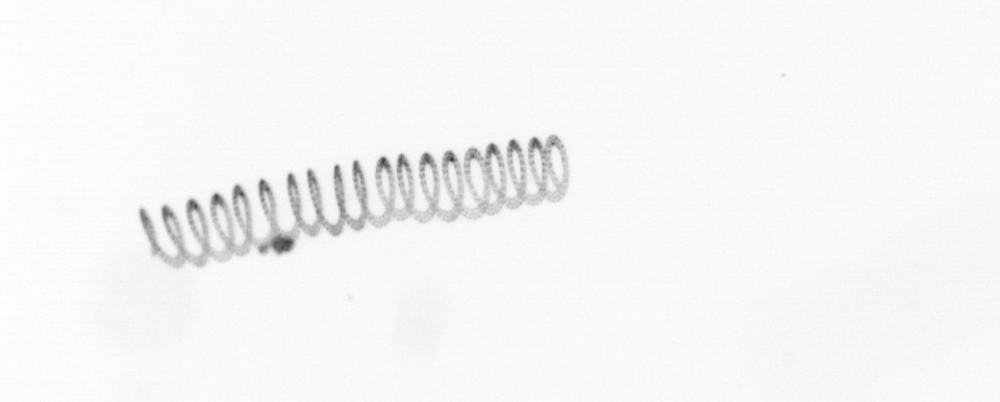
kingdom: Chromista
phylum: Ochrophyta
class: Bacillariophyceae
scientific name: Bacillariophyceae
